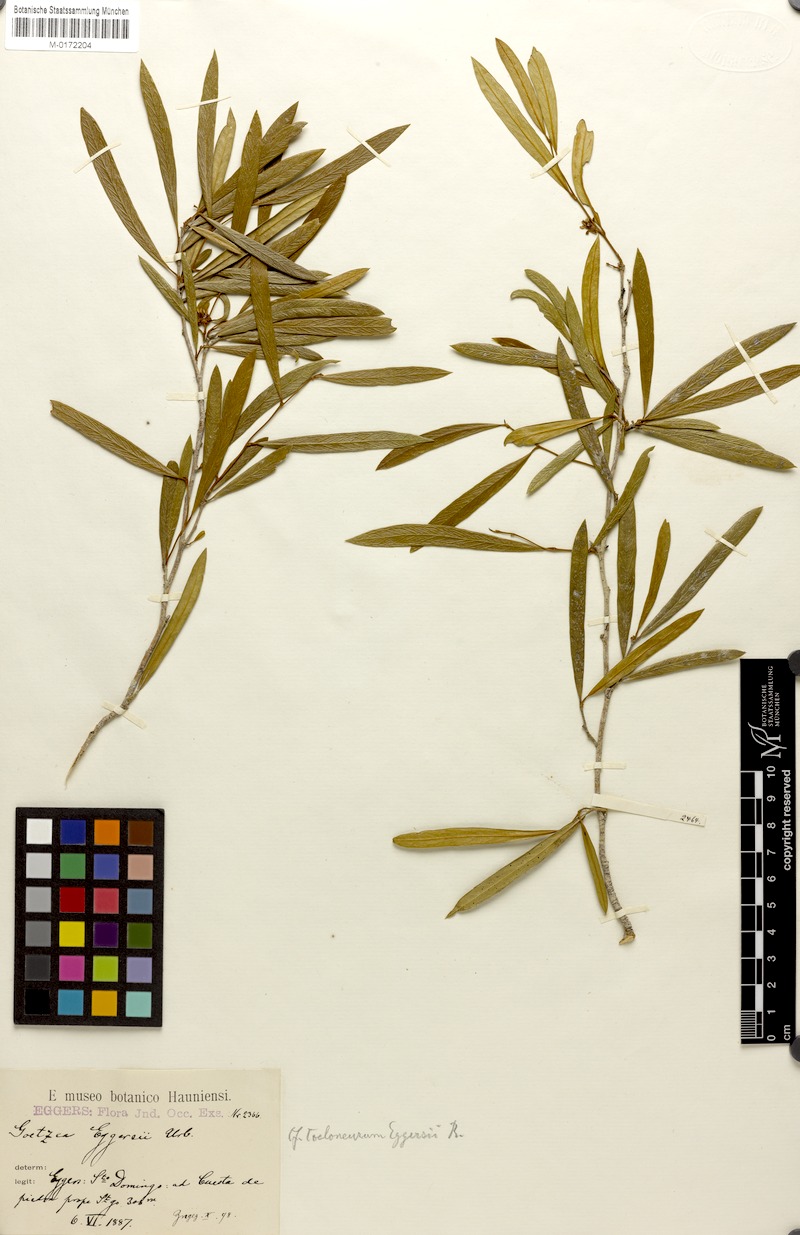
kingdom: Plantae
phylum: Tracheophyta
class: Magnoliopsida
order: Solanales
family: Solanaceae
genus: Coeloneurum
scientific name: Coeloneurum ferrugineum
